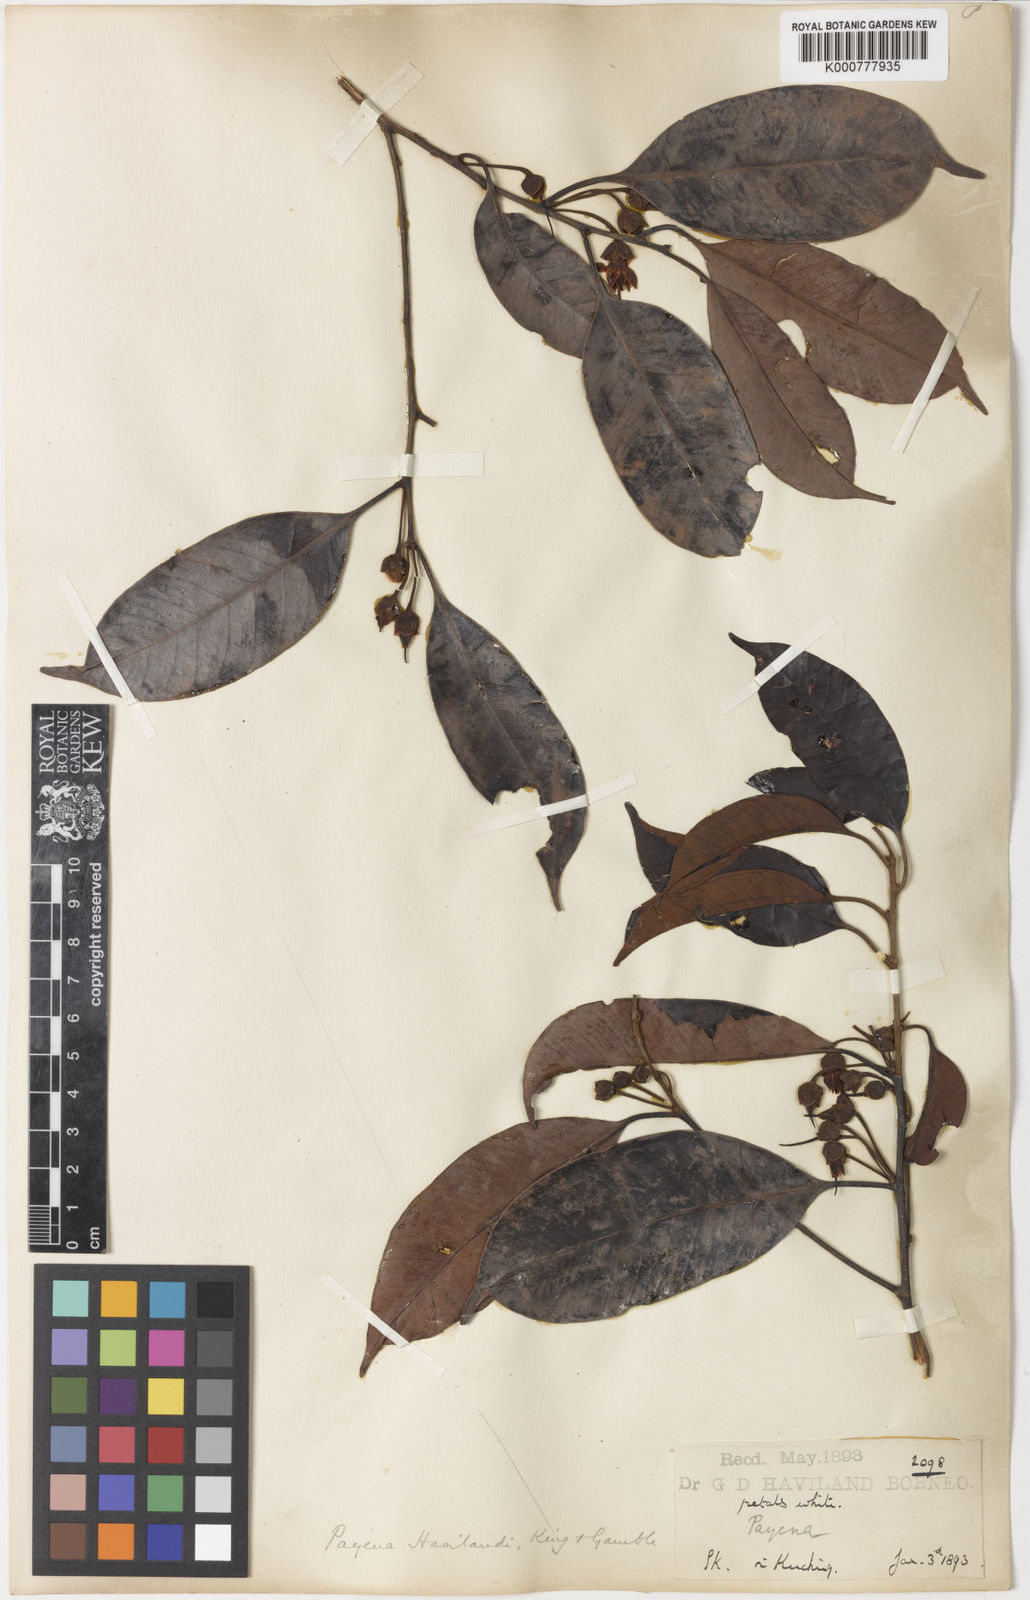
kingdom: Plantae
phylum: Tracheophyta
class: Magnoliopsida
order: Ericales
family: Sapotaceae
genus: Payena
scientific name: Payena obscura
